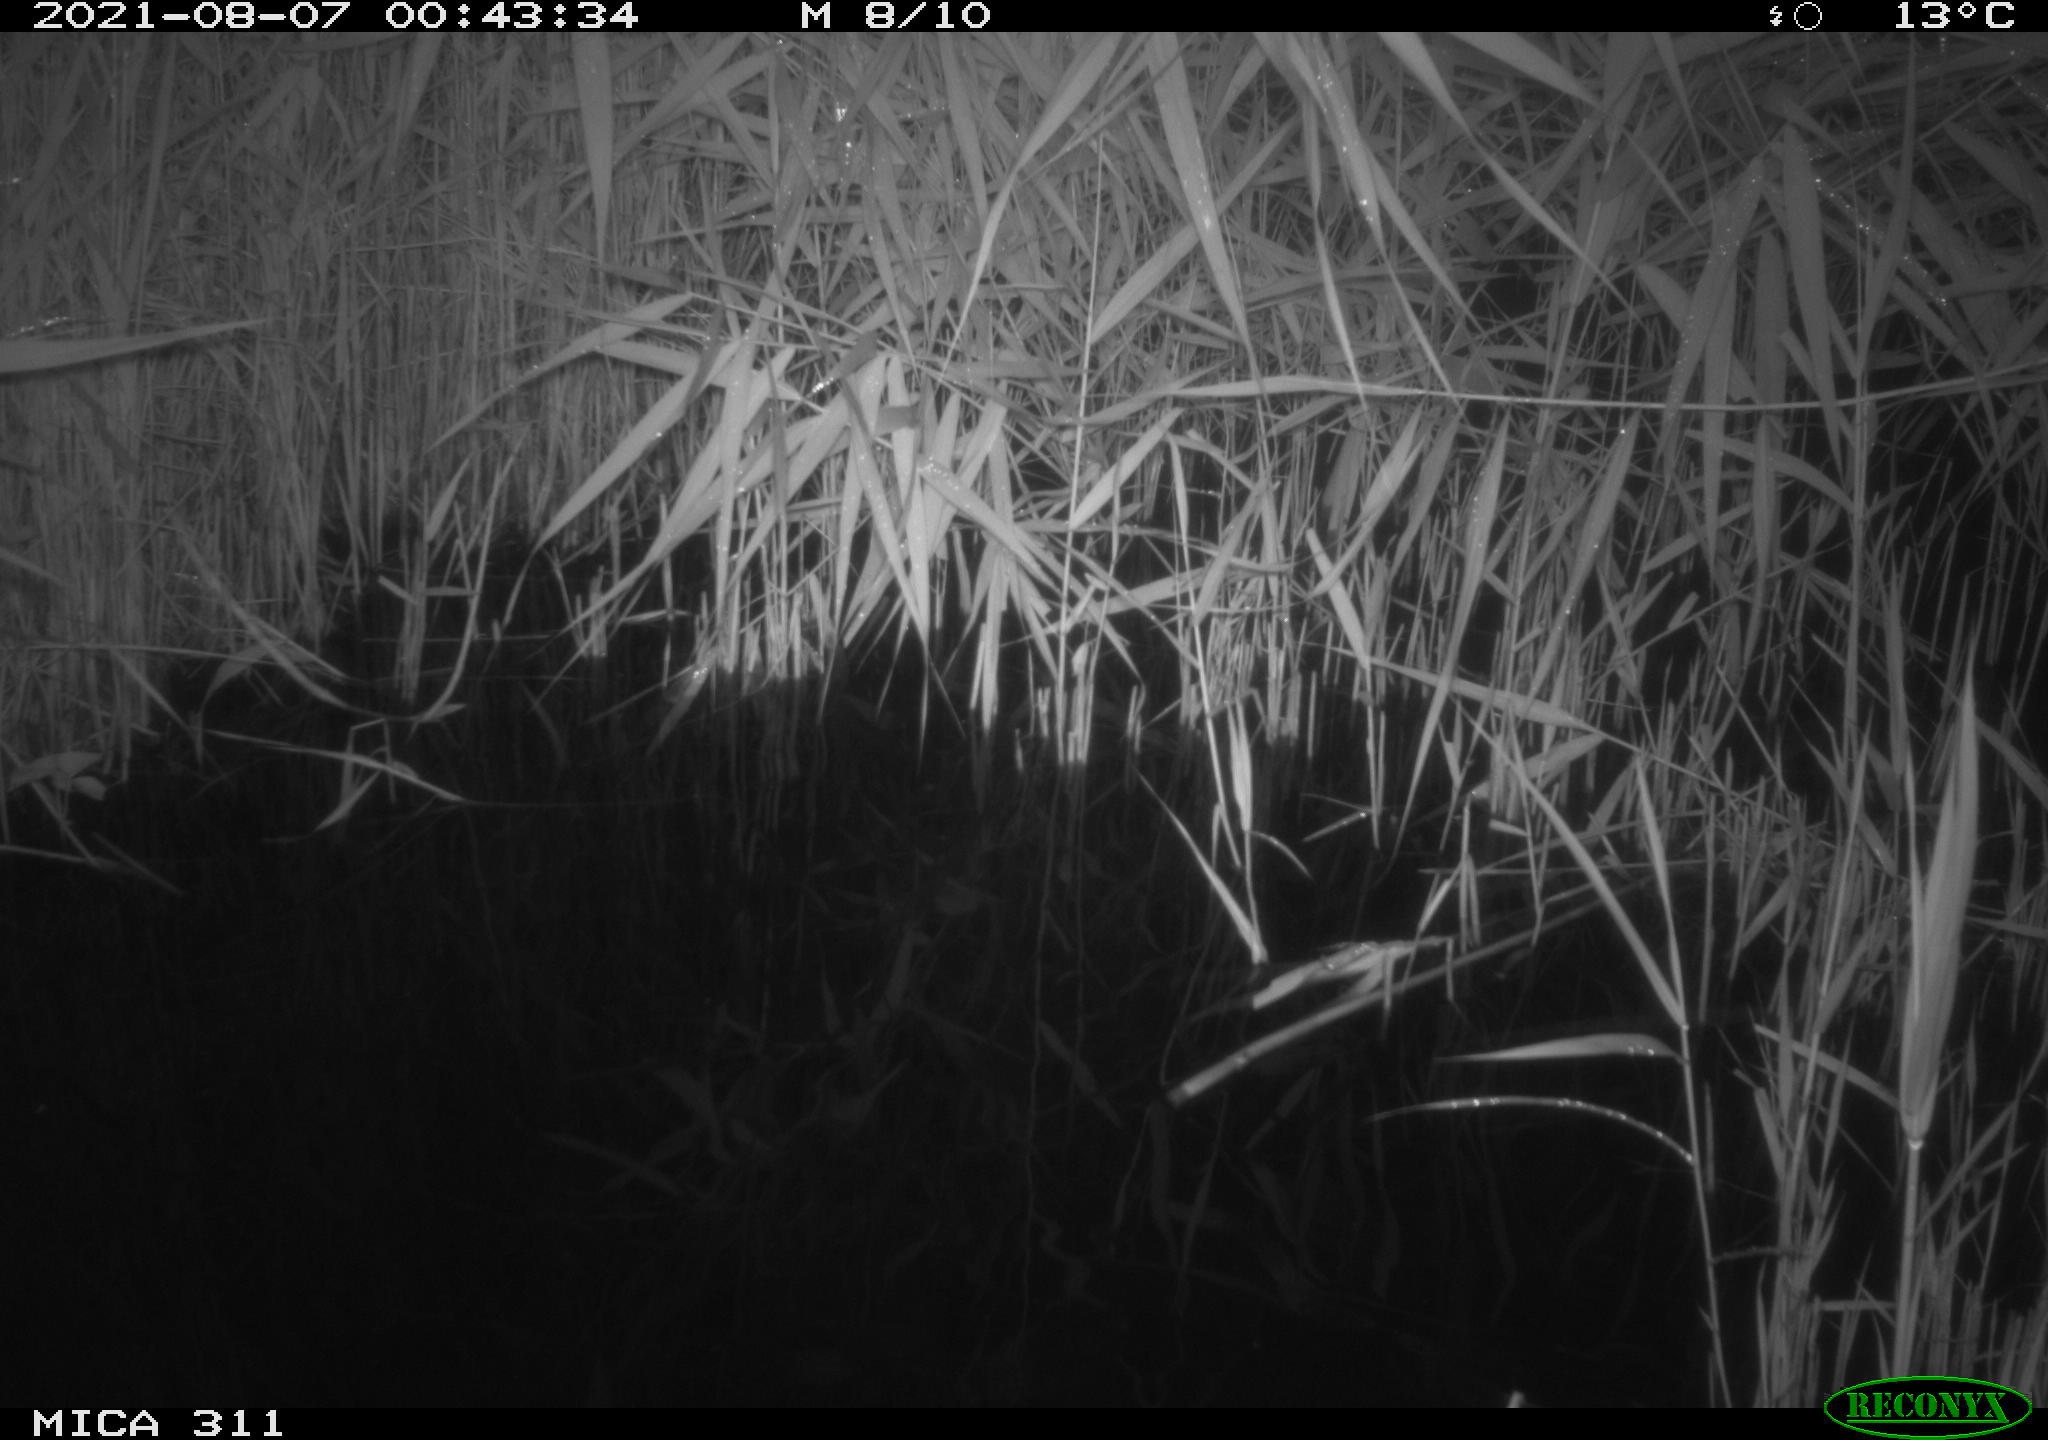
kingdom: Animalia
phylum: Chordata
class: Mammalia
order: Rodentia
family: Muridae
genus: Rattus
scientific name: Rattus norvegicus
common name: Brown rat
